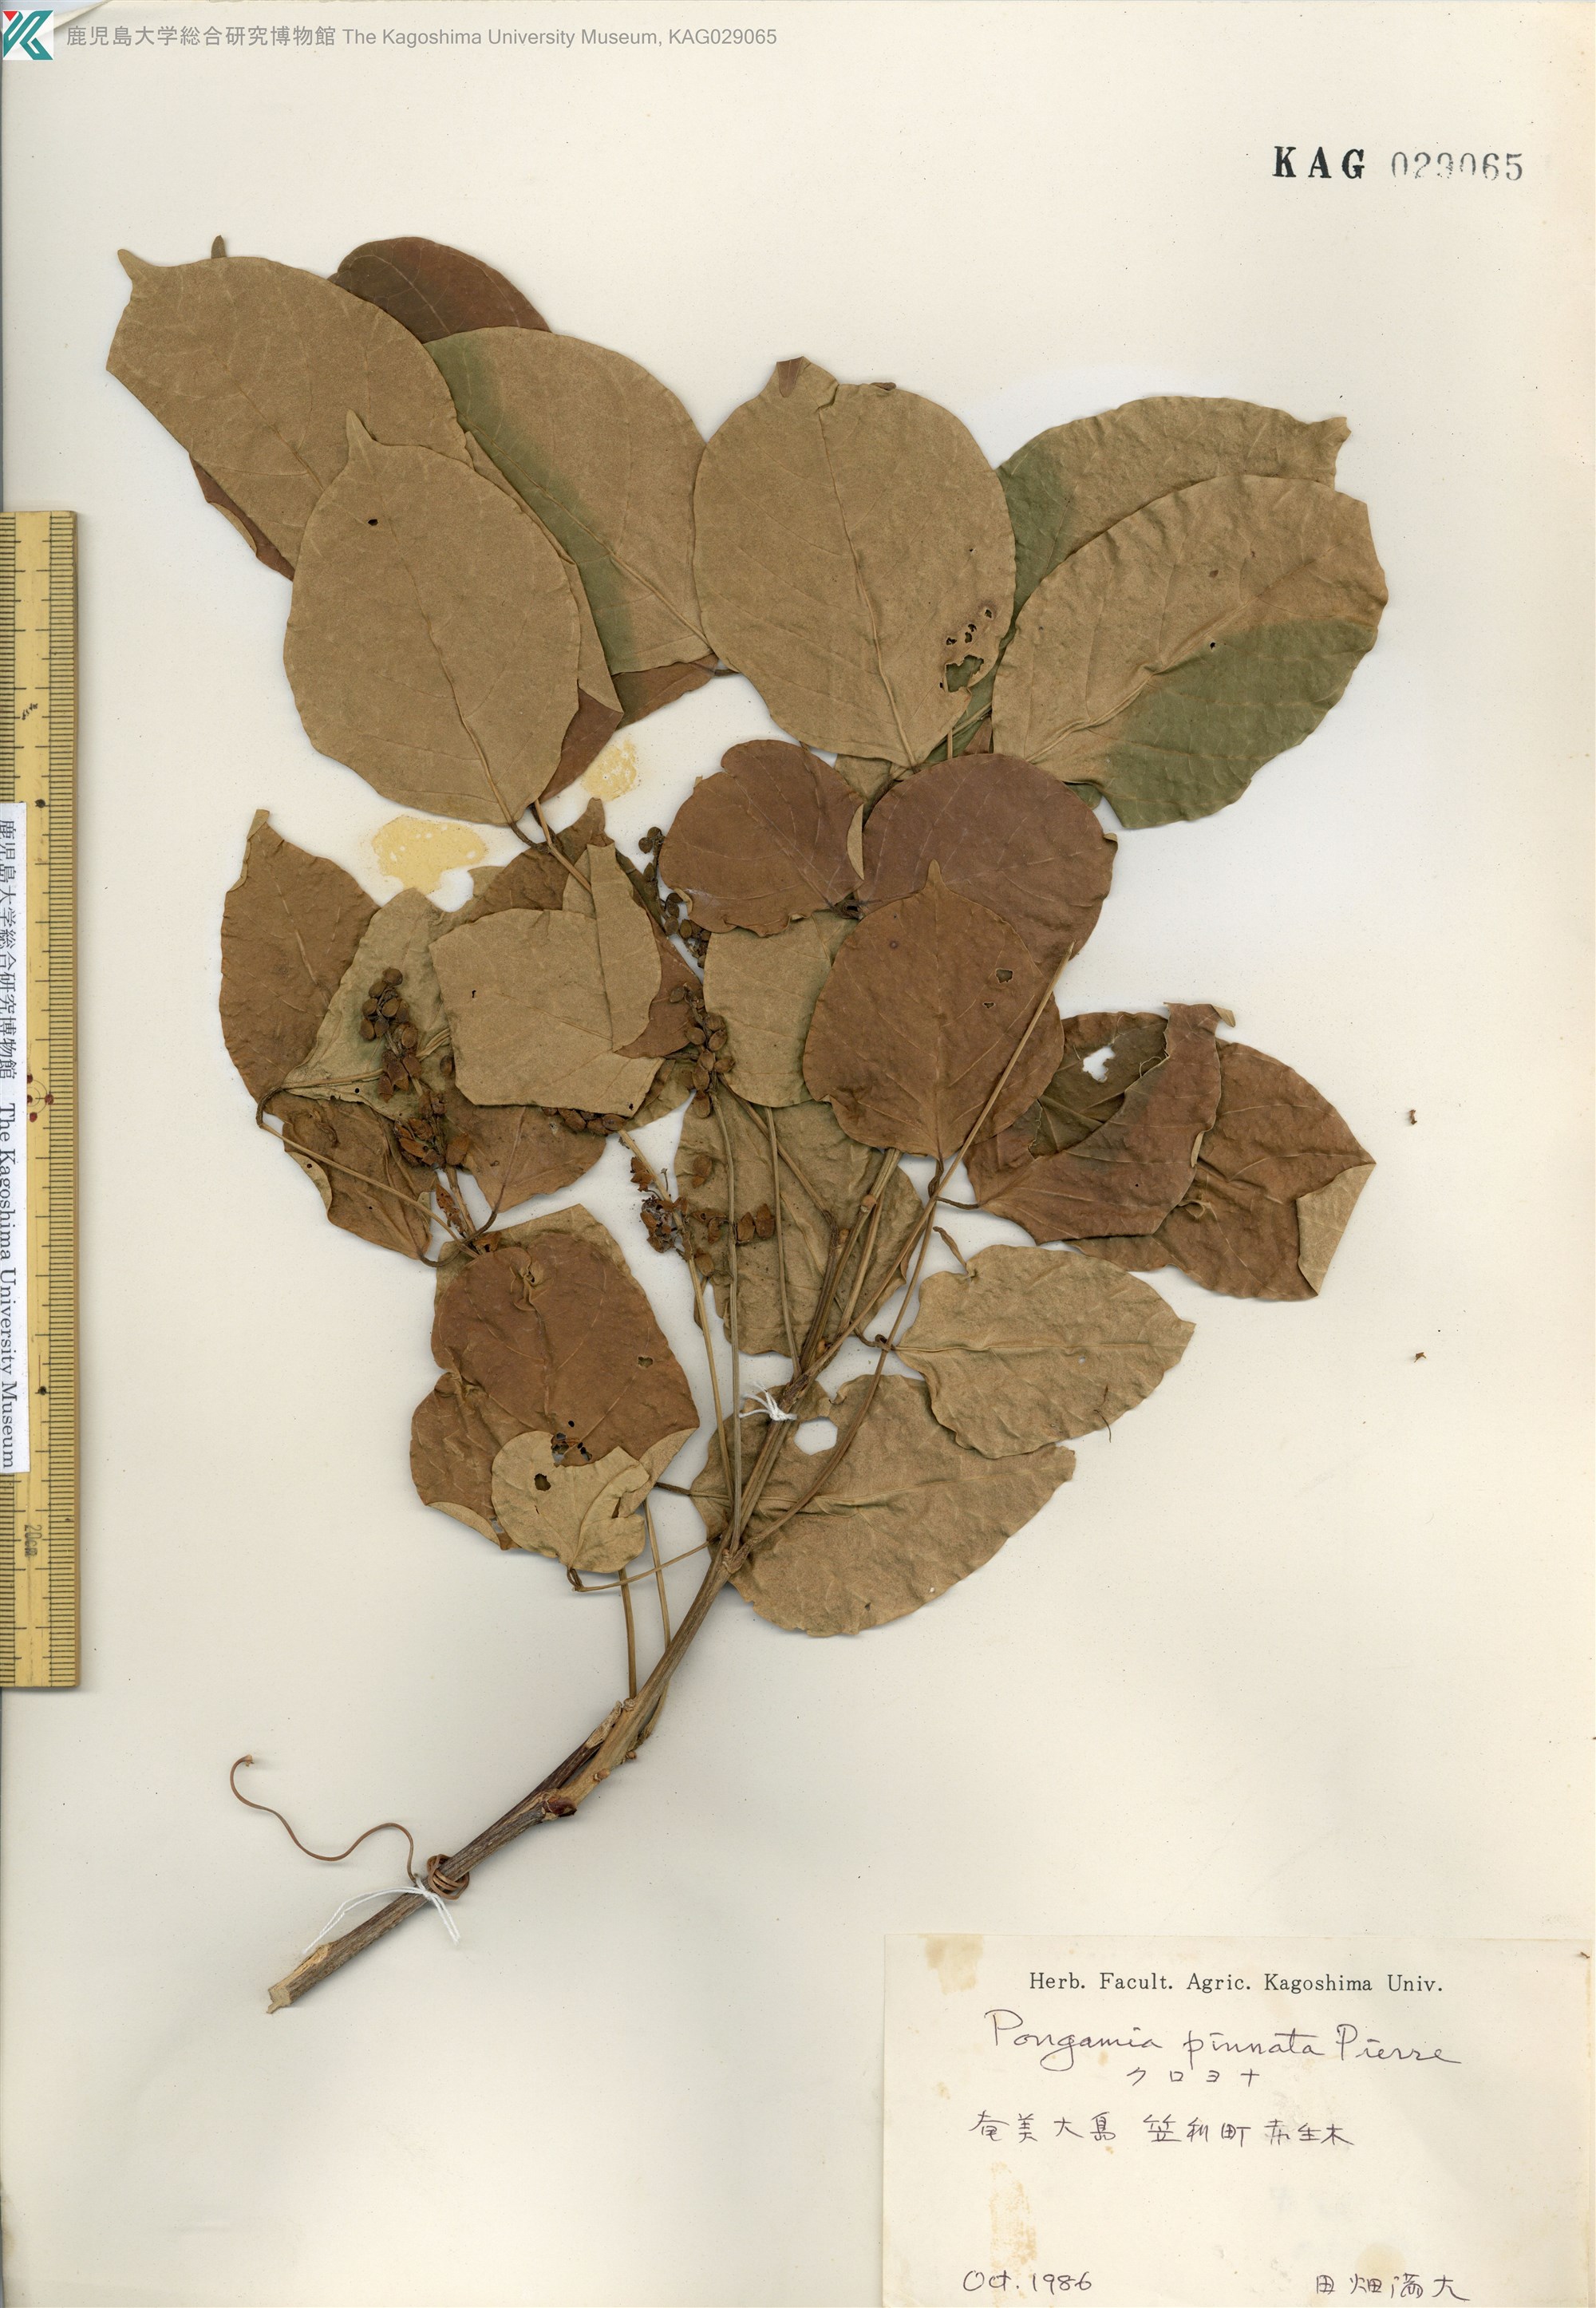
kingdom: Plantae
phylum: Tracheophyta
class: Magnoliopsida
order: Fabales
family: Fabaceae
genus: Pongamia
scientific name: Pongamia pinnata
